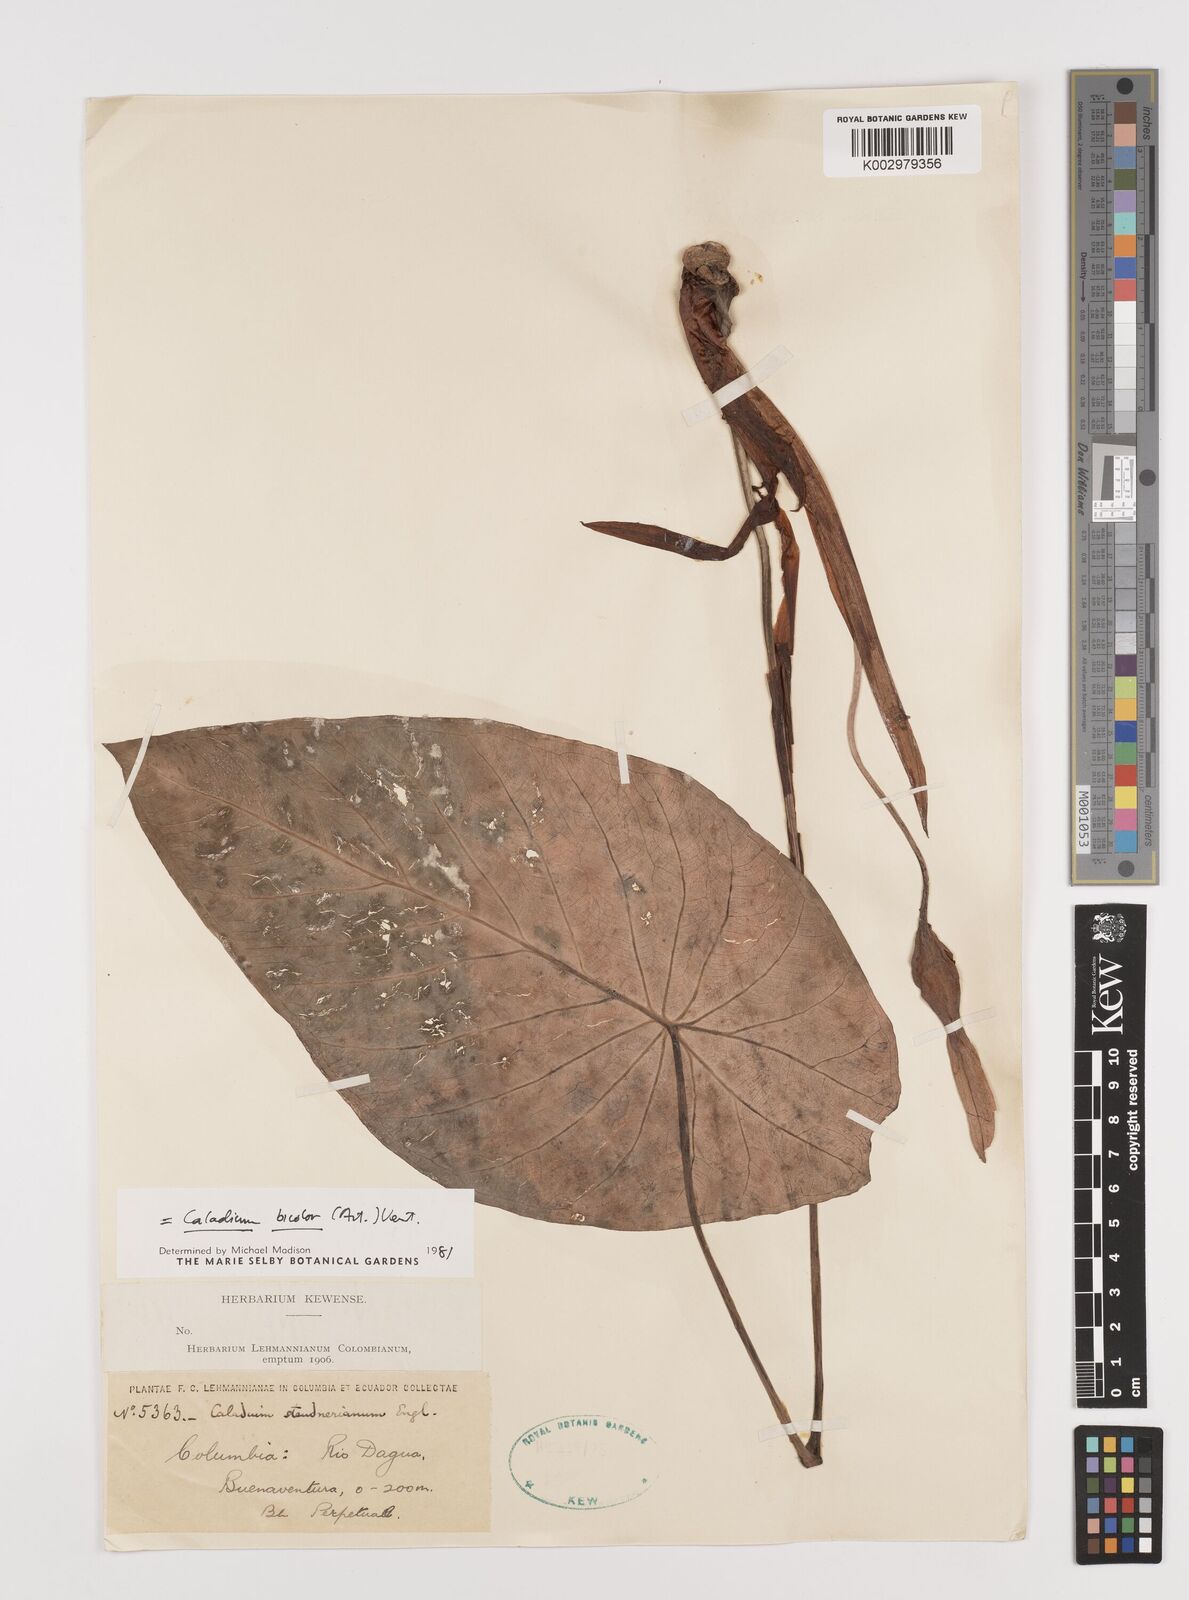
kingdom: Plantae
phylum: Tracheophyta
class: Liliopsida
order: Alismatales
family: Araceae
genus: Caladium
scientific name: Caladium bicolor
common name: Artist's pallet
